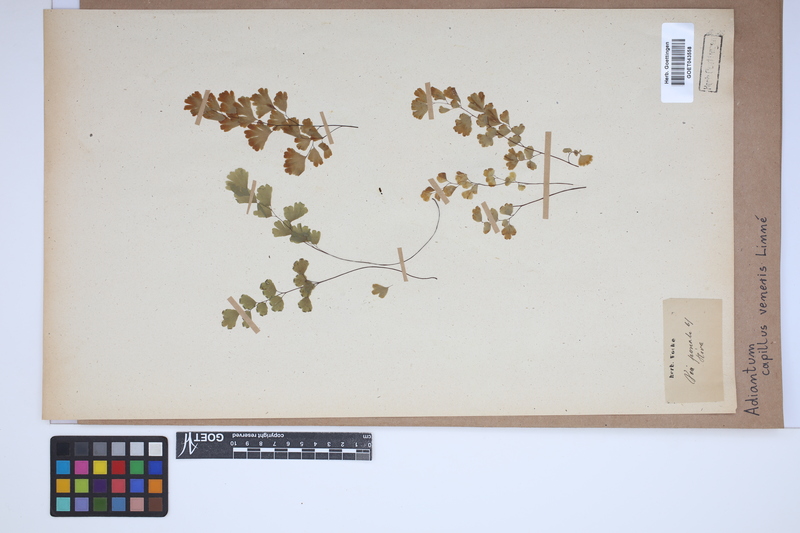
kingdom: Plantae
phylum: Tracheophyta
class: Polypodiopsida
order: Polypodiales
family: Pteridaceae
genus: Adiantum
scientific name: Adiantum capillus-veneris
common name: Maidenhair fern
